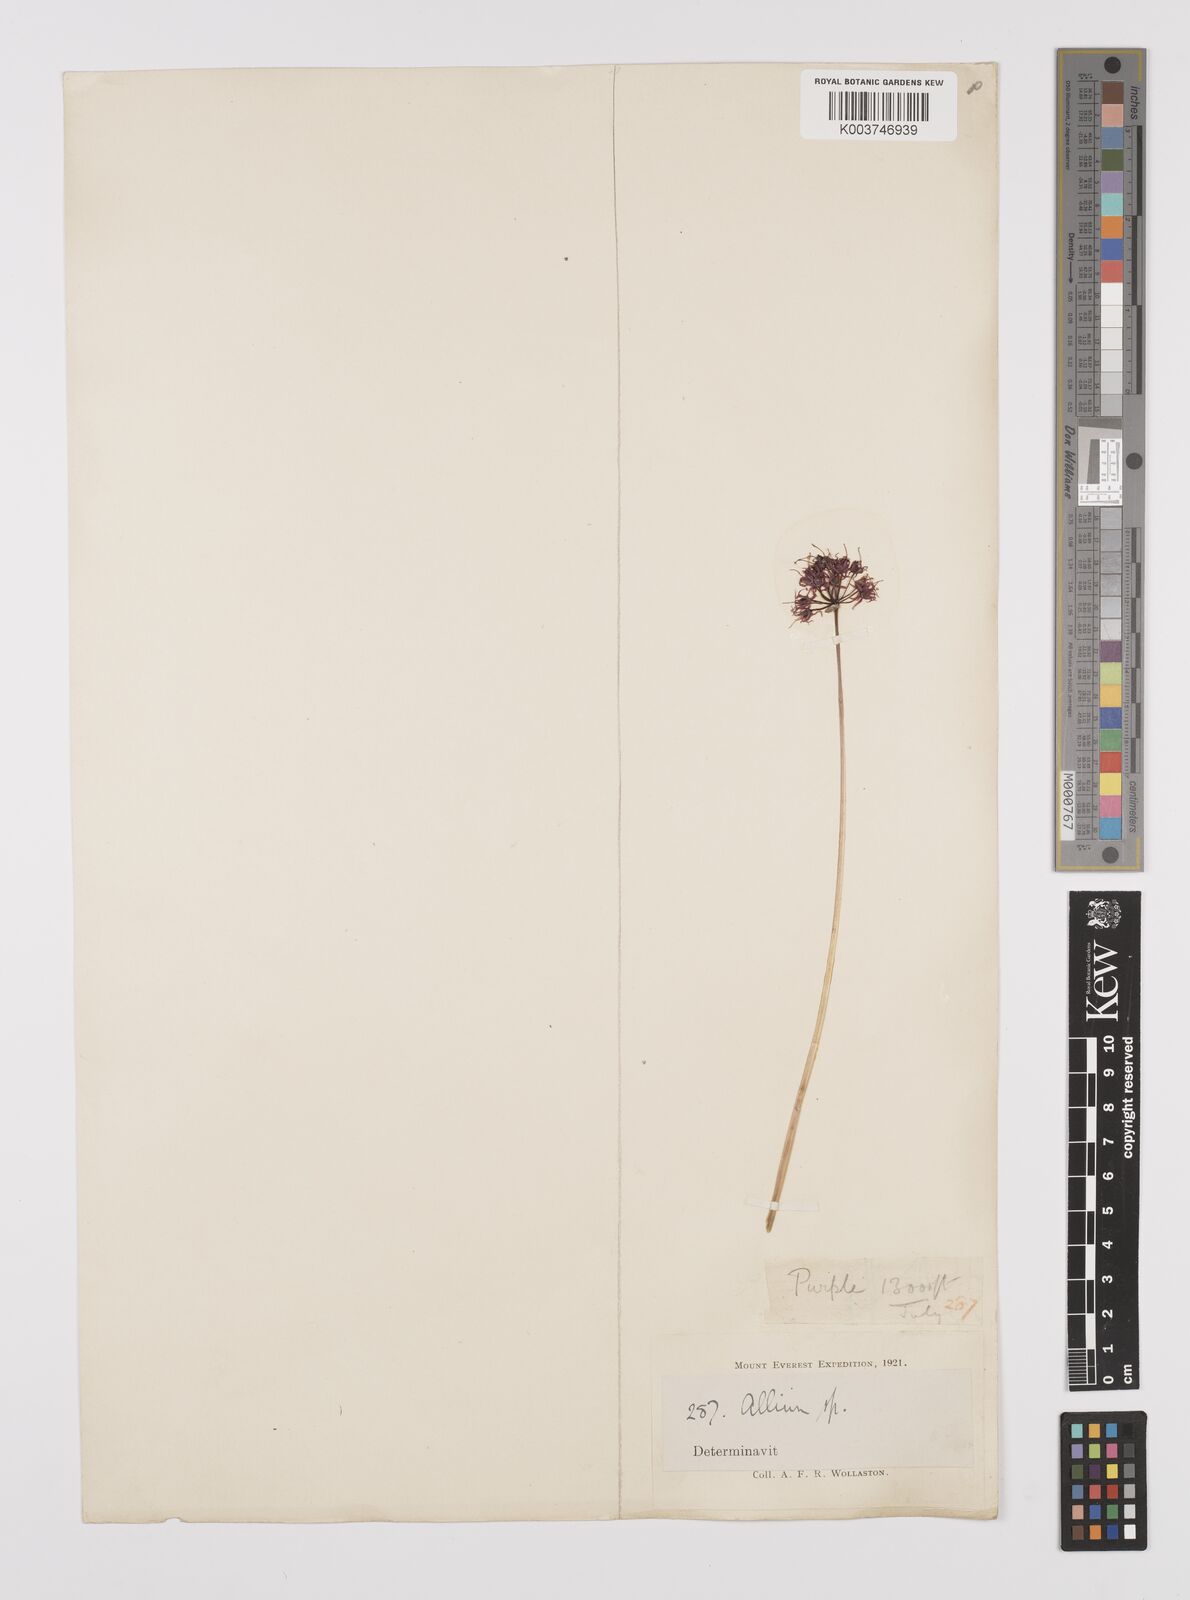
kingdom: Plantae
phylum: Tracheophyta
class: Liliopsida
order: Asparagales
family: Amaryllidaceae
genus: Allium
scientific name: Allium
